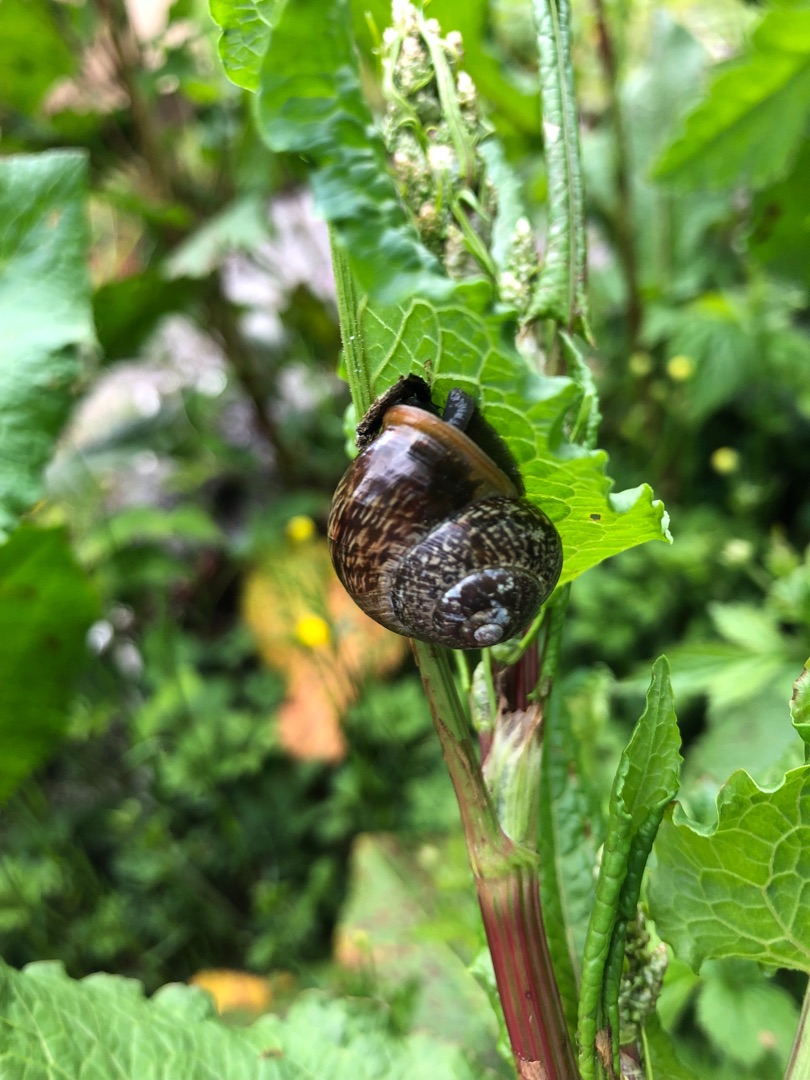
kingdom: Animalia
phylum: Mollusca
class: Gastropoda
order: Stylommatophora
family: Helicidae
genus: Arianta
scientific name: Arianta arbustorum
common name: Kratsnegl
